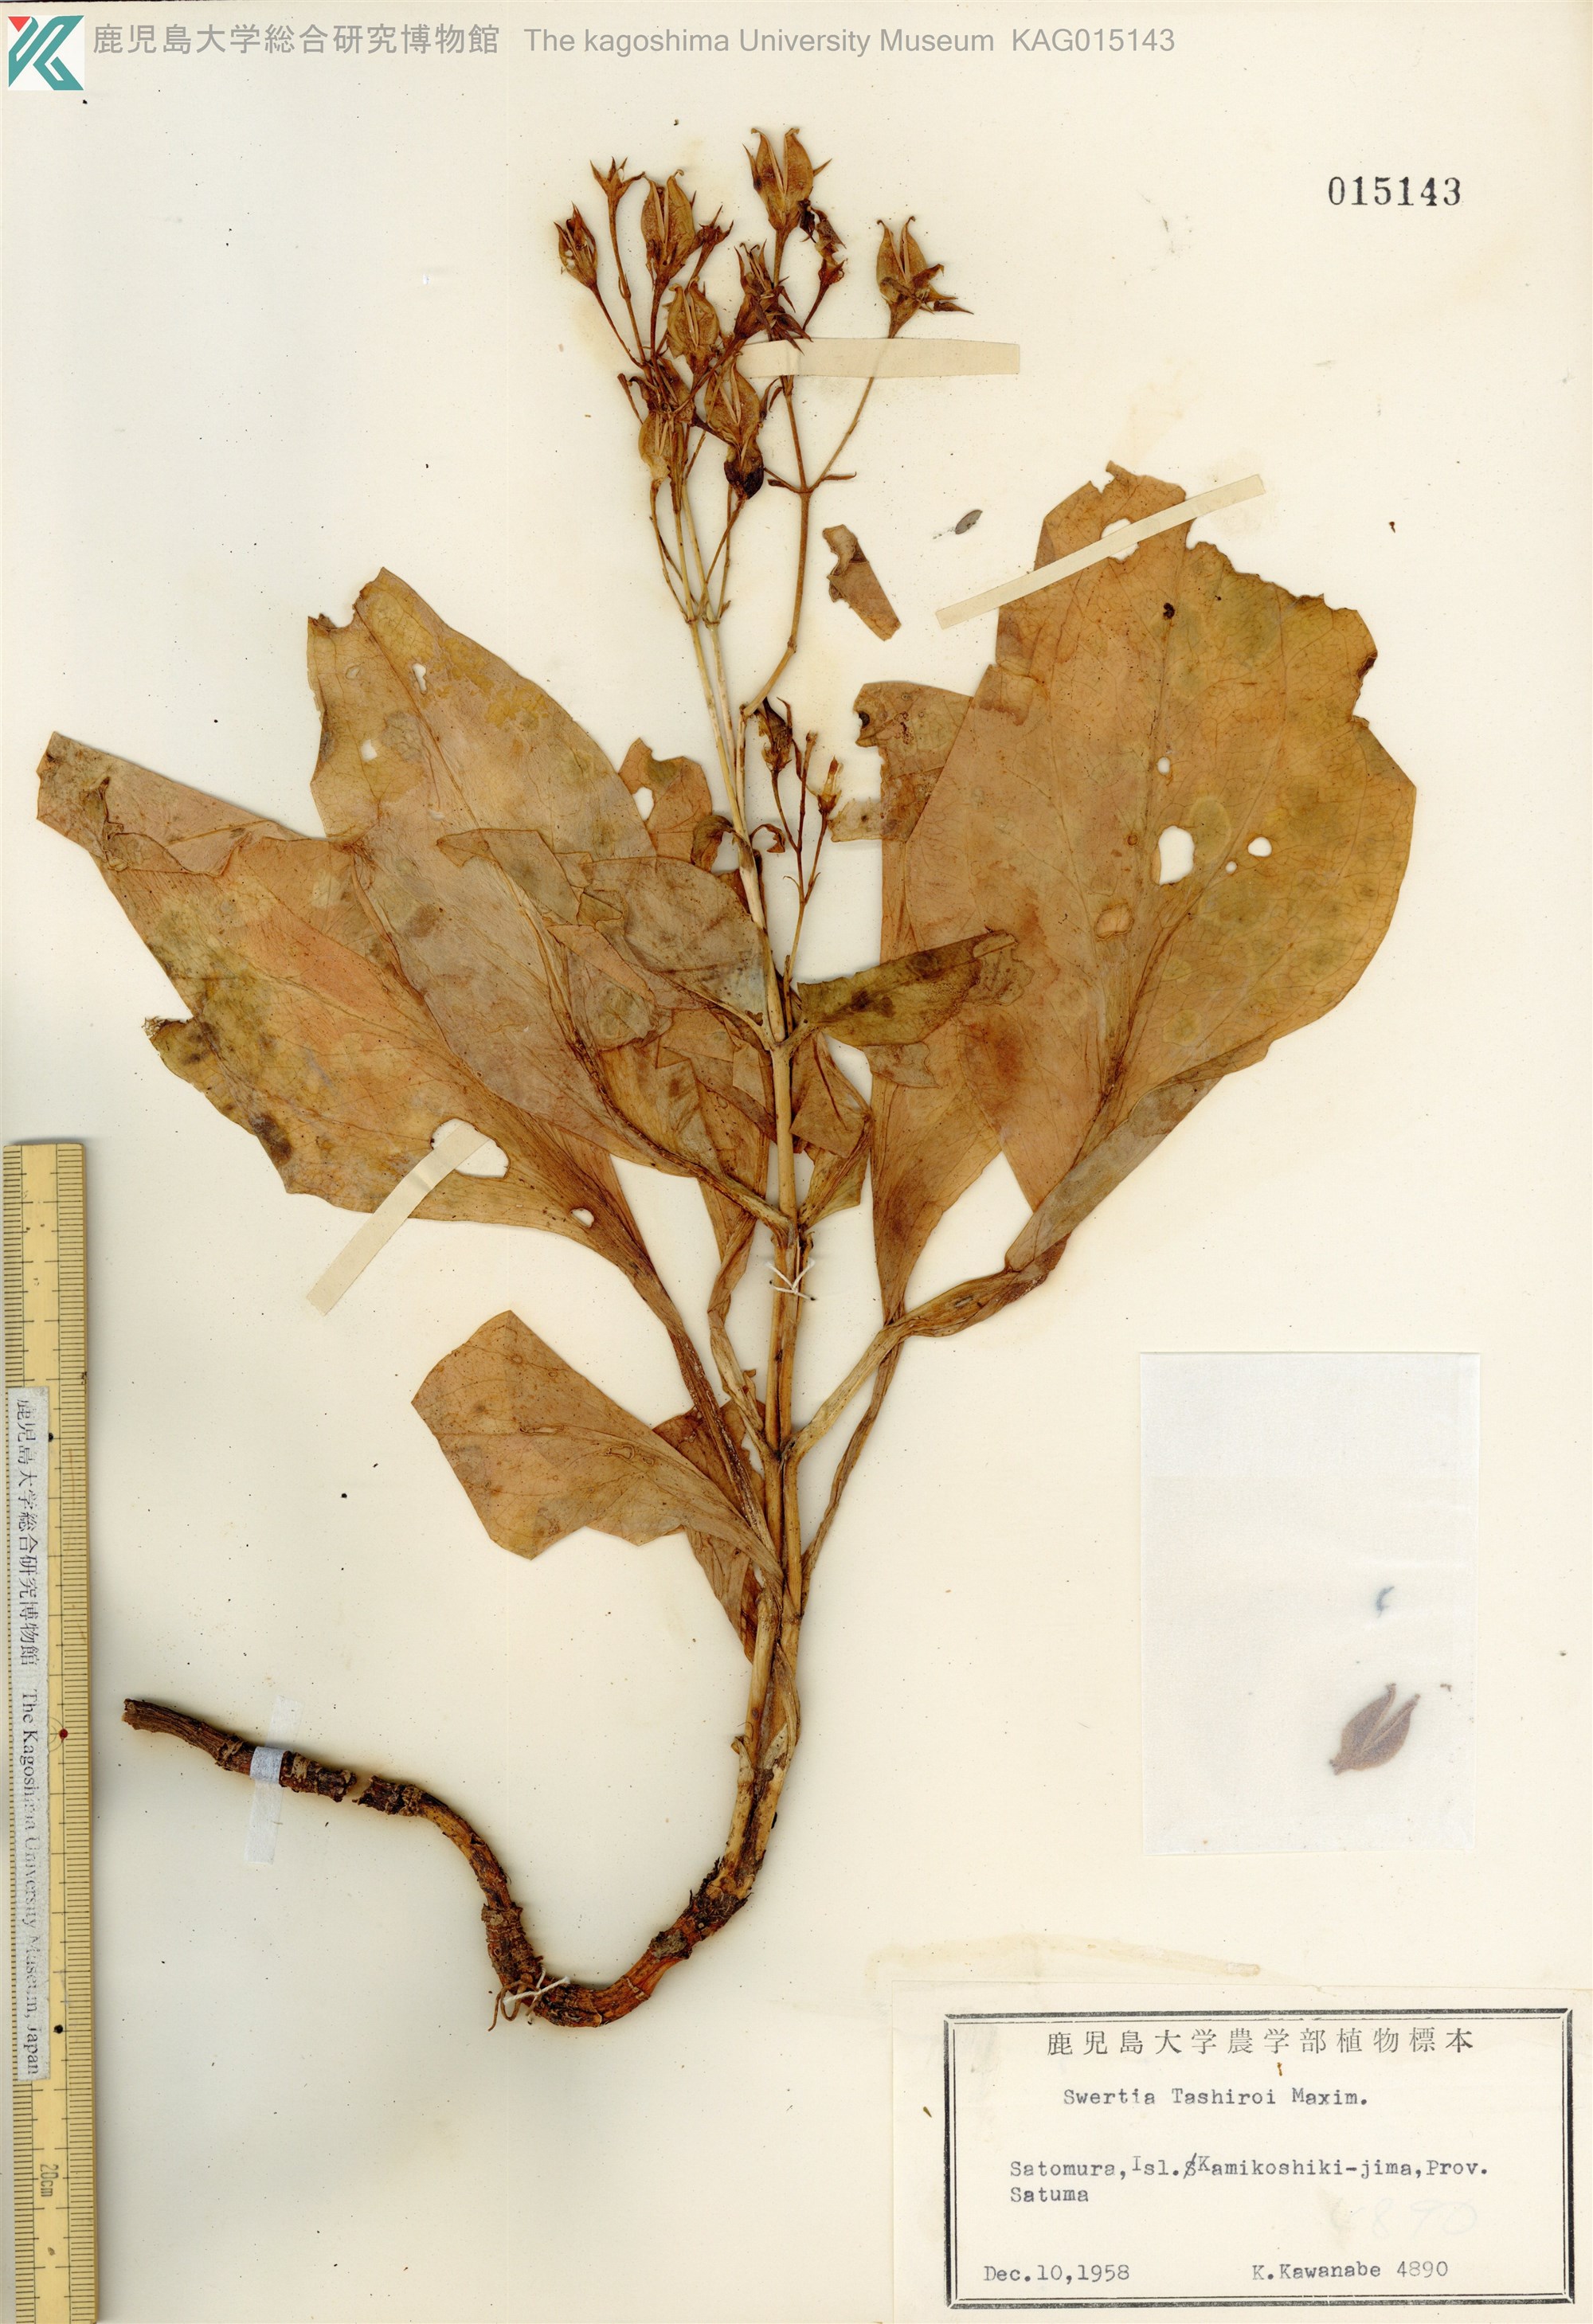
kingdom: Plantae
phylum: Tracheophyta
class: Magnoliopsida
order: Gentianales
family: Gentianaceae
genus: Swertia
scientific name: Swertia tashiroi
